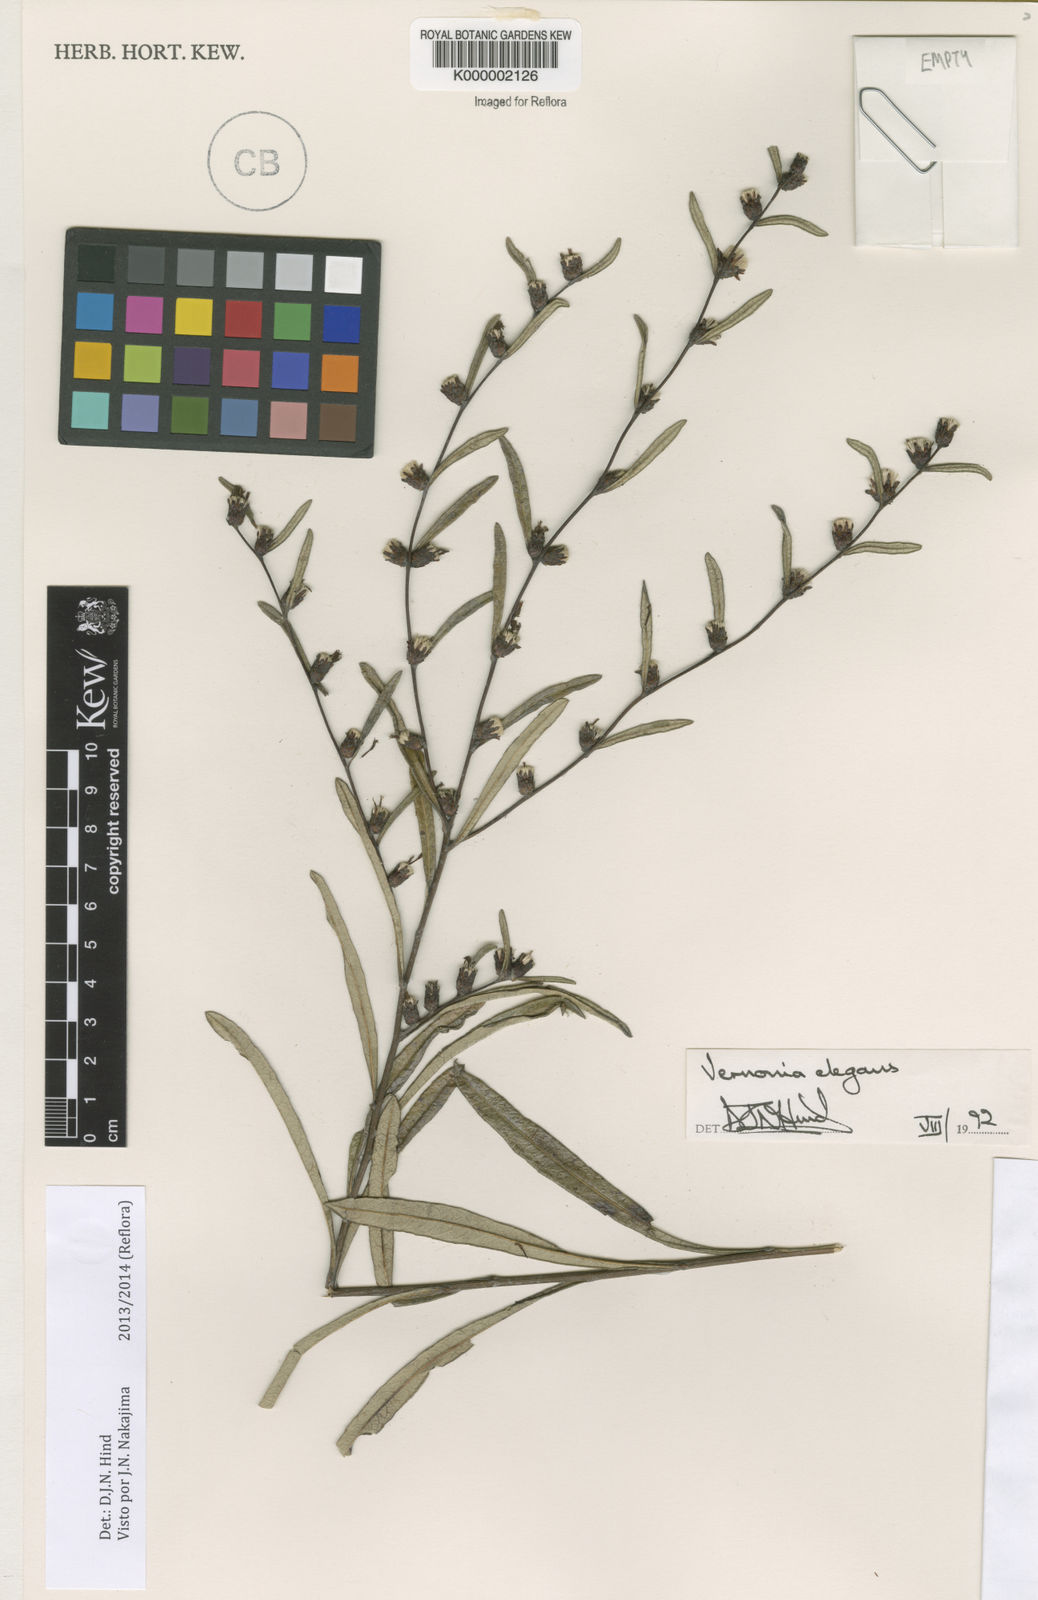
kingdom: Plantae
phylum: Tracheophyta
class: Magnoliopsida
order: Asterales
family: Asteraceae
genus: Lessingianthus
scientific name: Lessingianthus elegans
